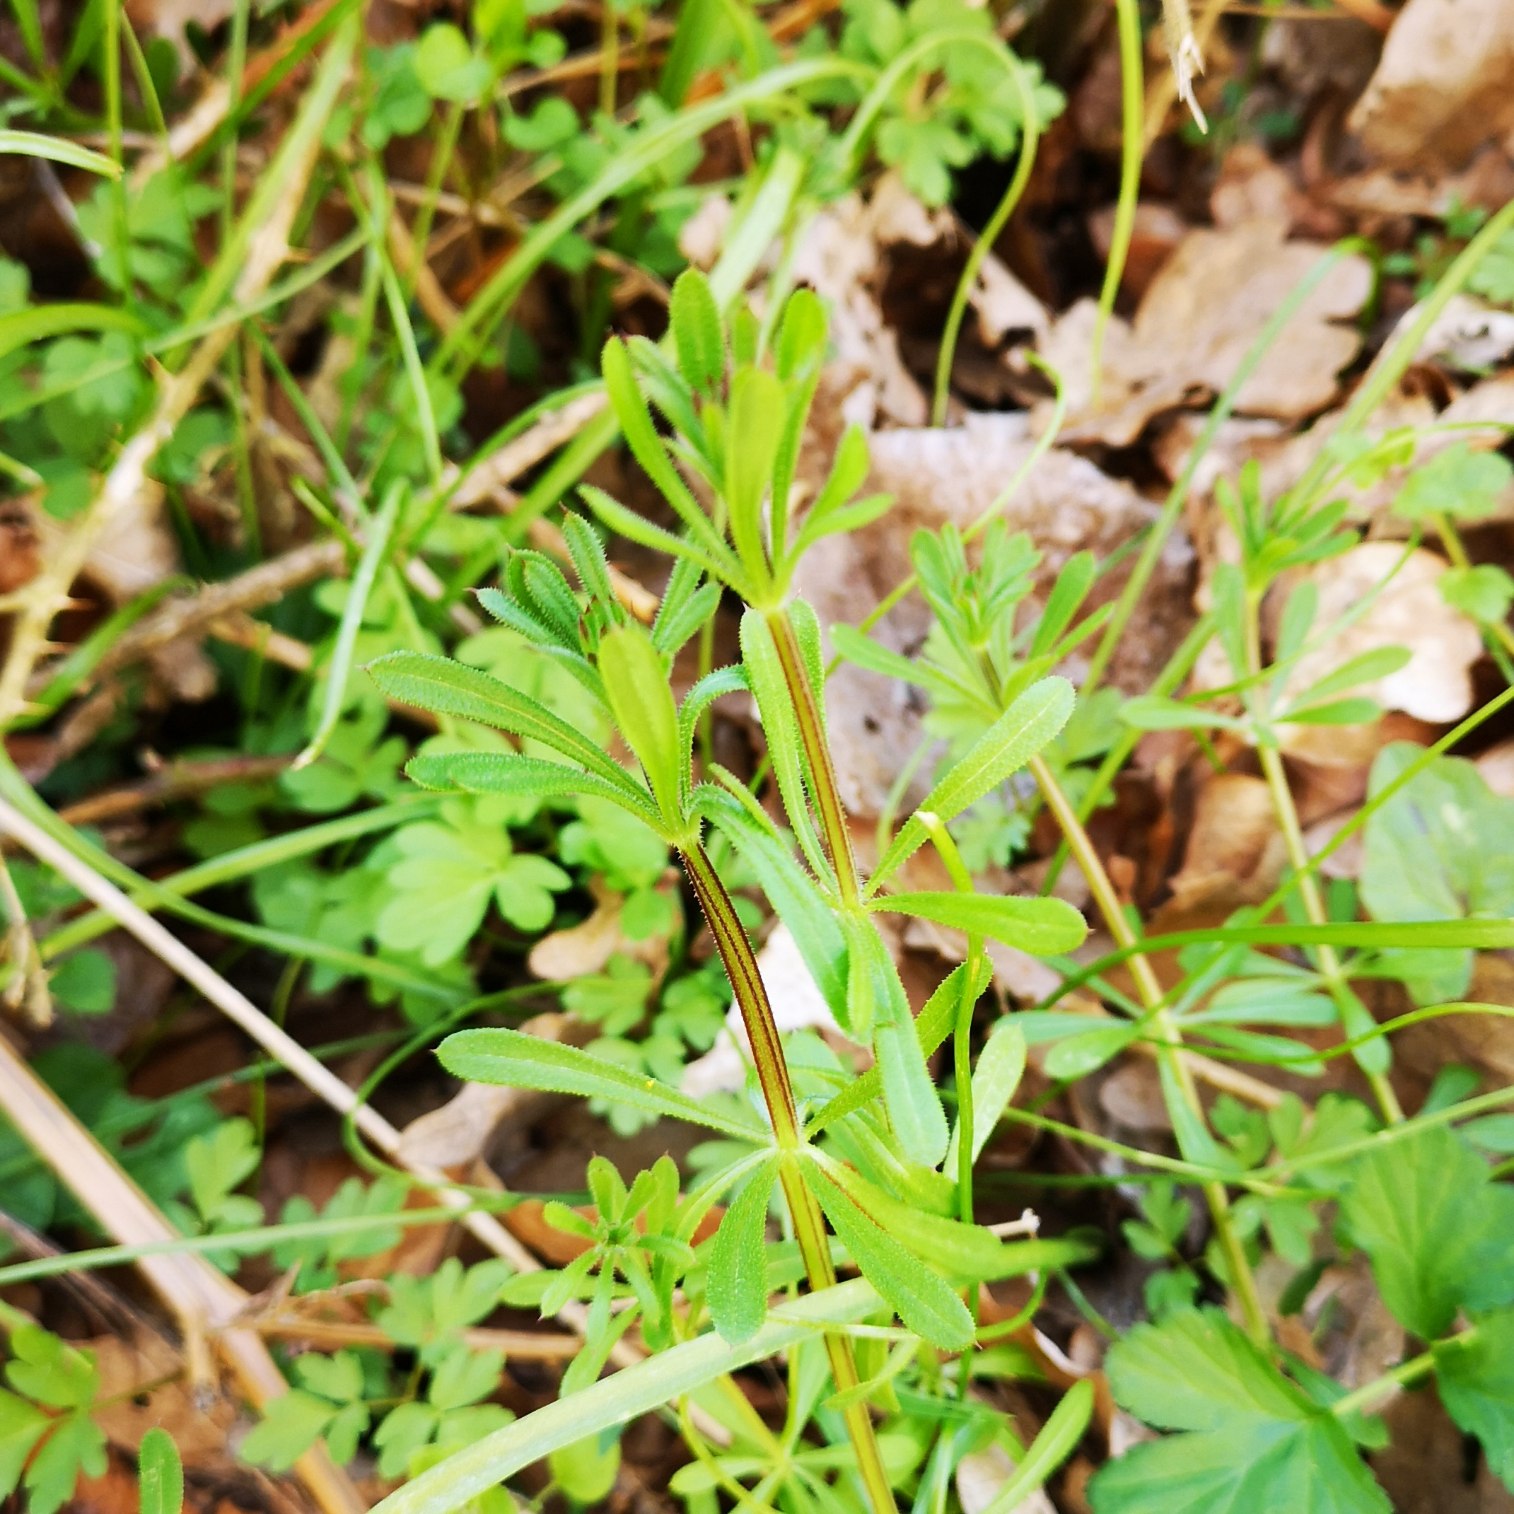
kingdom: Plantae
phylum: Tracheophyta
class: Magnoliopsida
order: Gentianales
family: Rubiaceae
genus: Galium
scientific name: Galium aparine
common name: Burre-snerre
